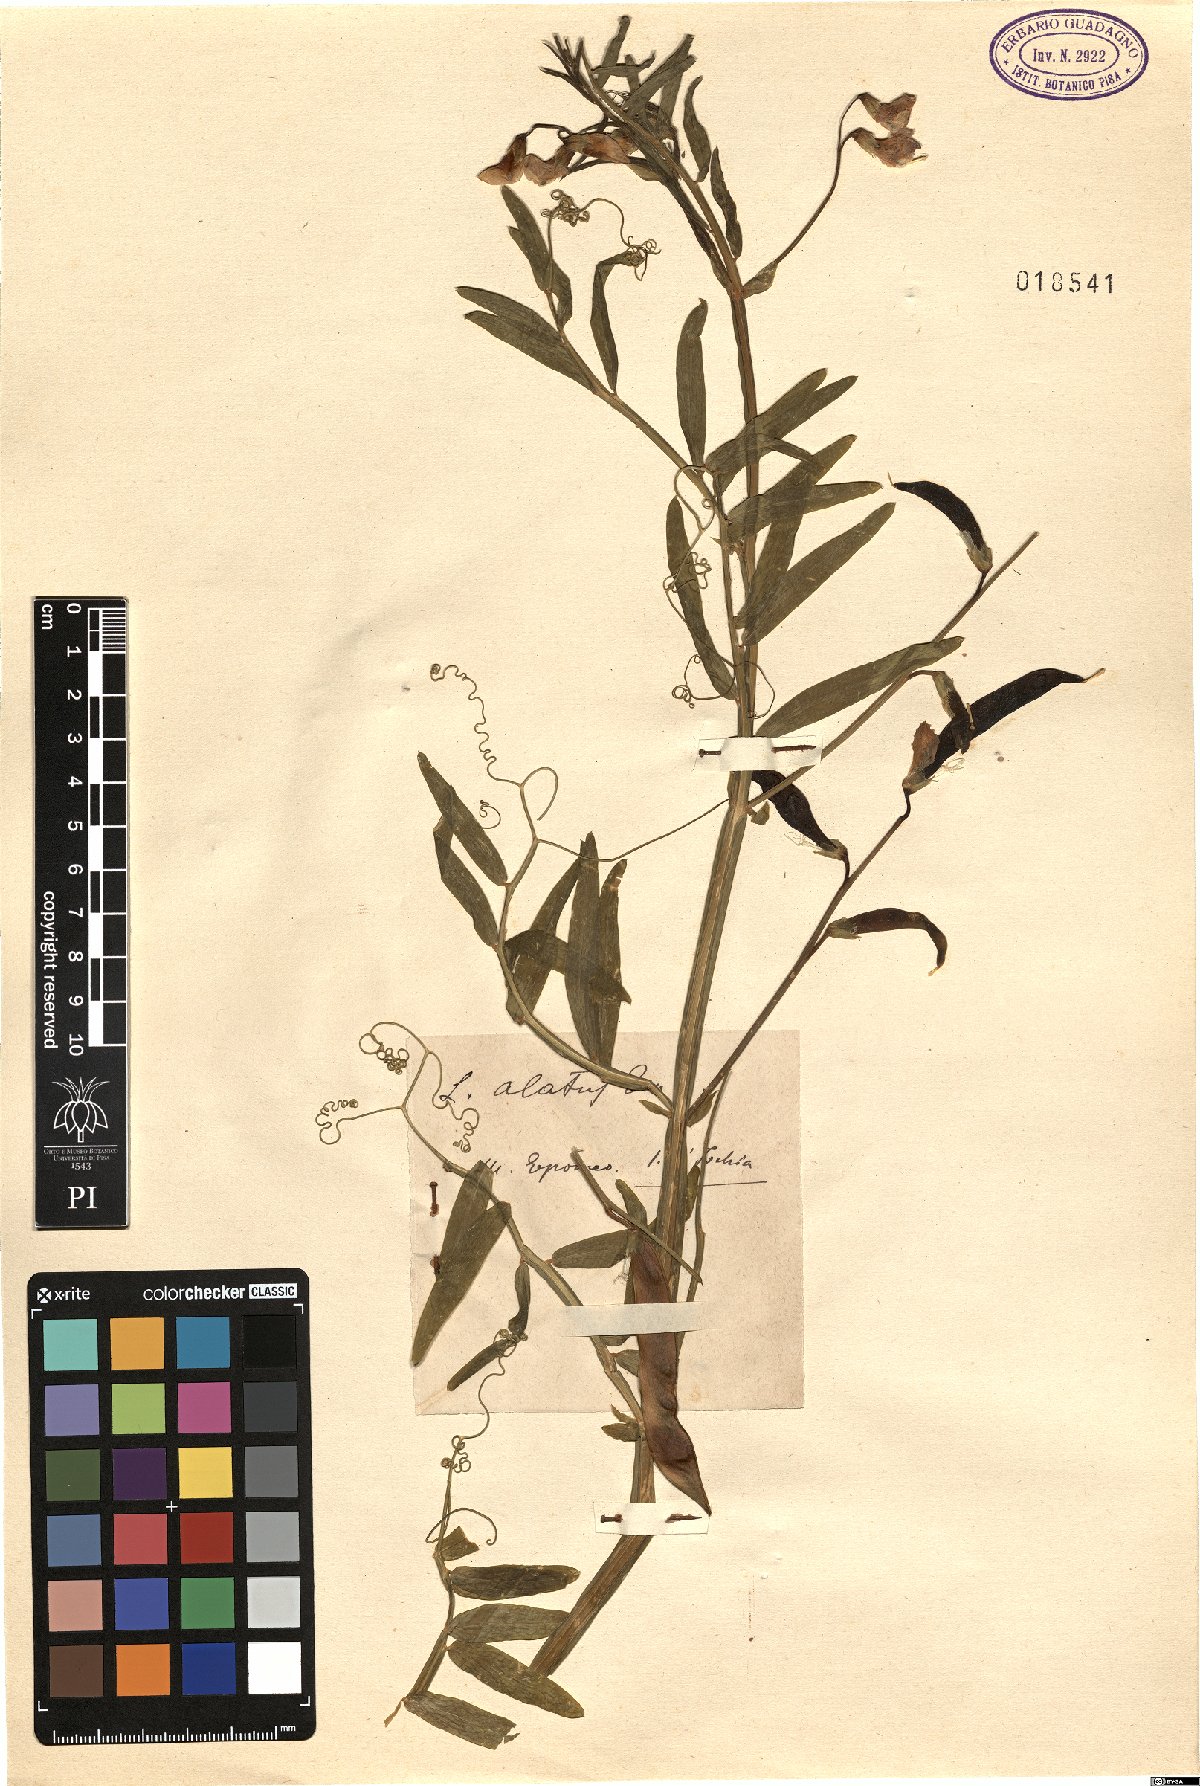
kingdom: Plantae
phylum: Tracheophyta
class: Magnoliopsida
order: Fabales
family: Fabaceae
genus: Lathyrus
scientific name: Lathyrus komarovii
